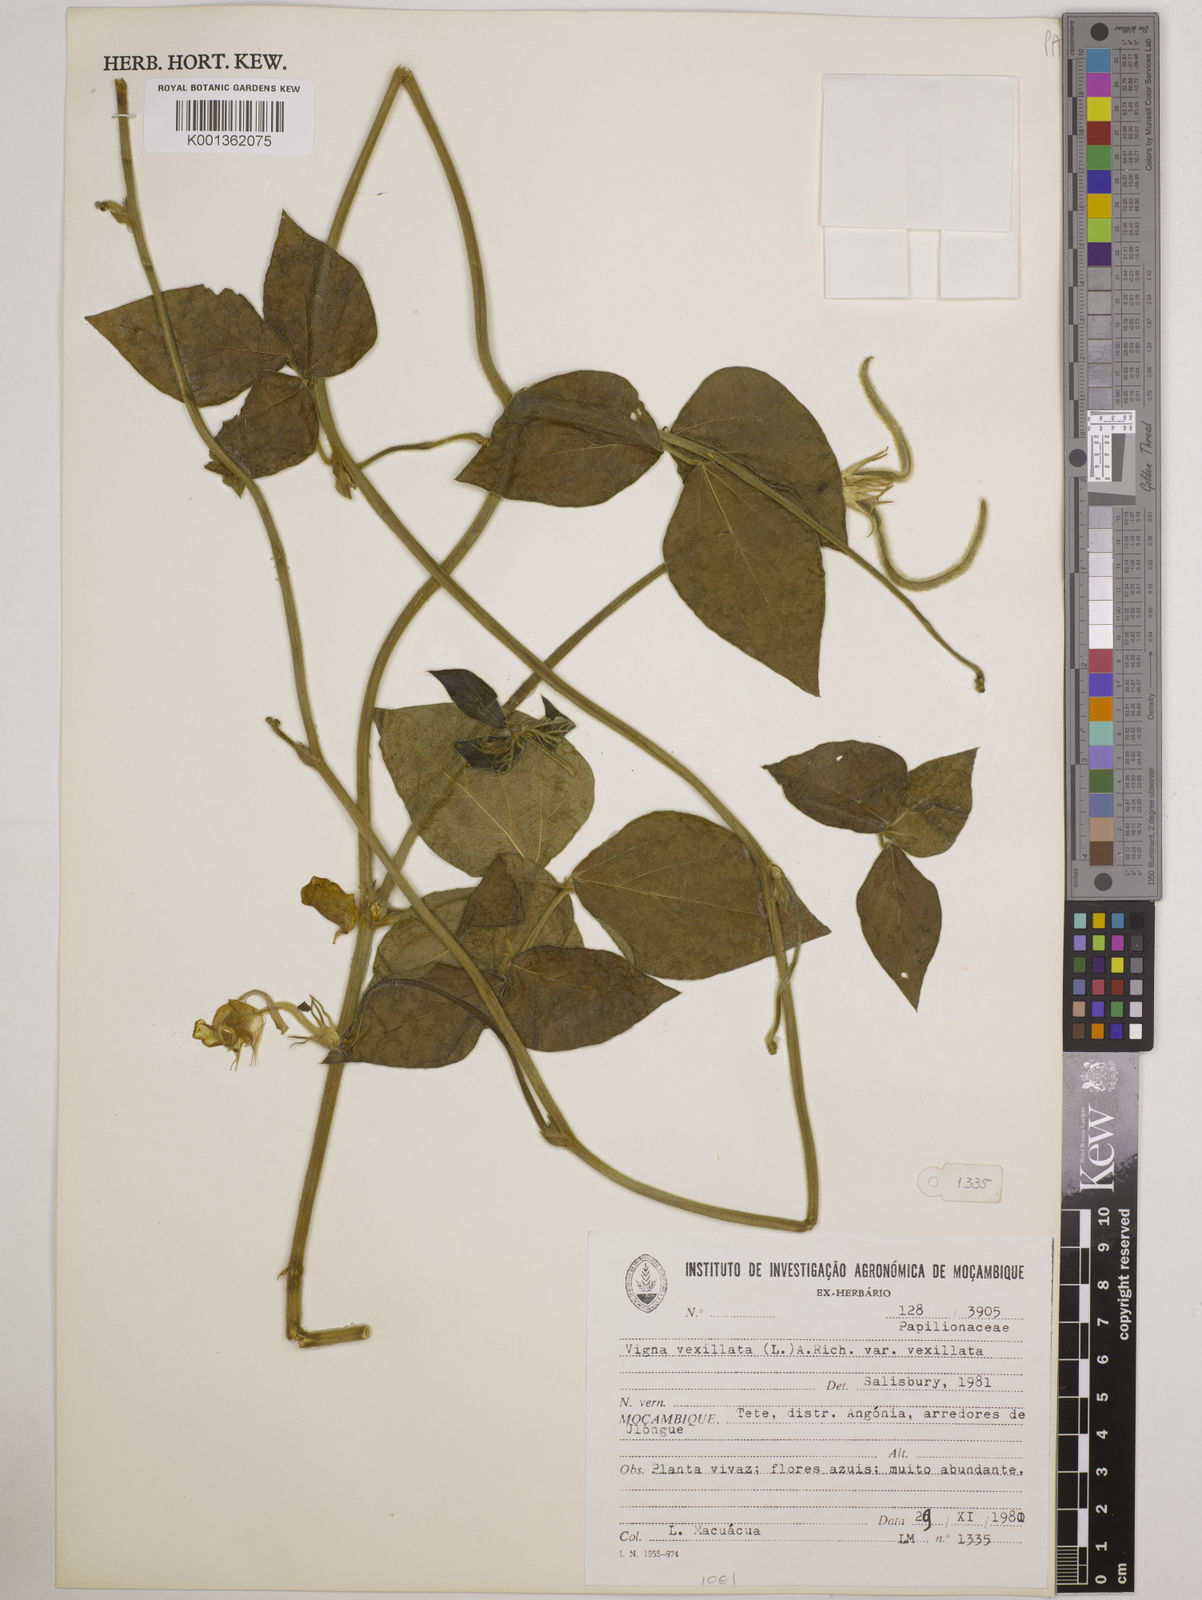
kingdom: Plantae
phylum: Tracheophyta
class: Magnoliopsida
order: Fabales
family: Fabaceae
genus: Vigna
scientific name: Vigna vexillata
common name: Zombi pea
